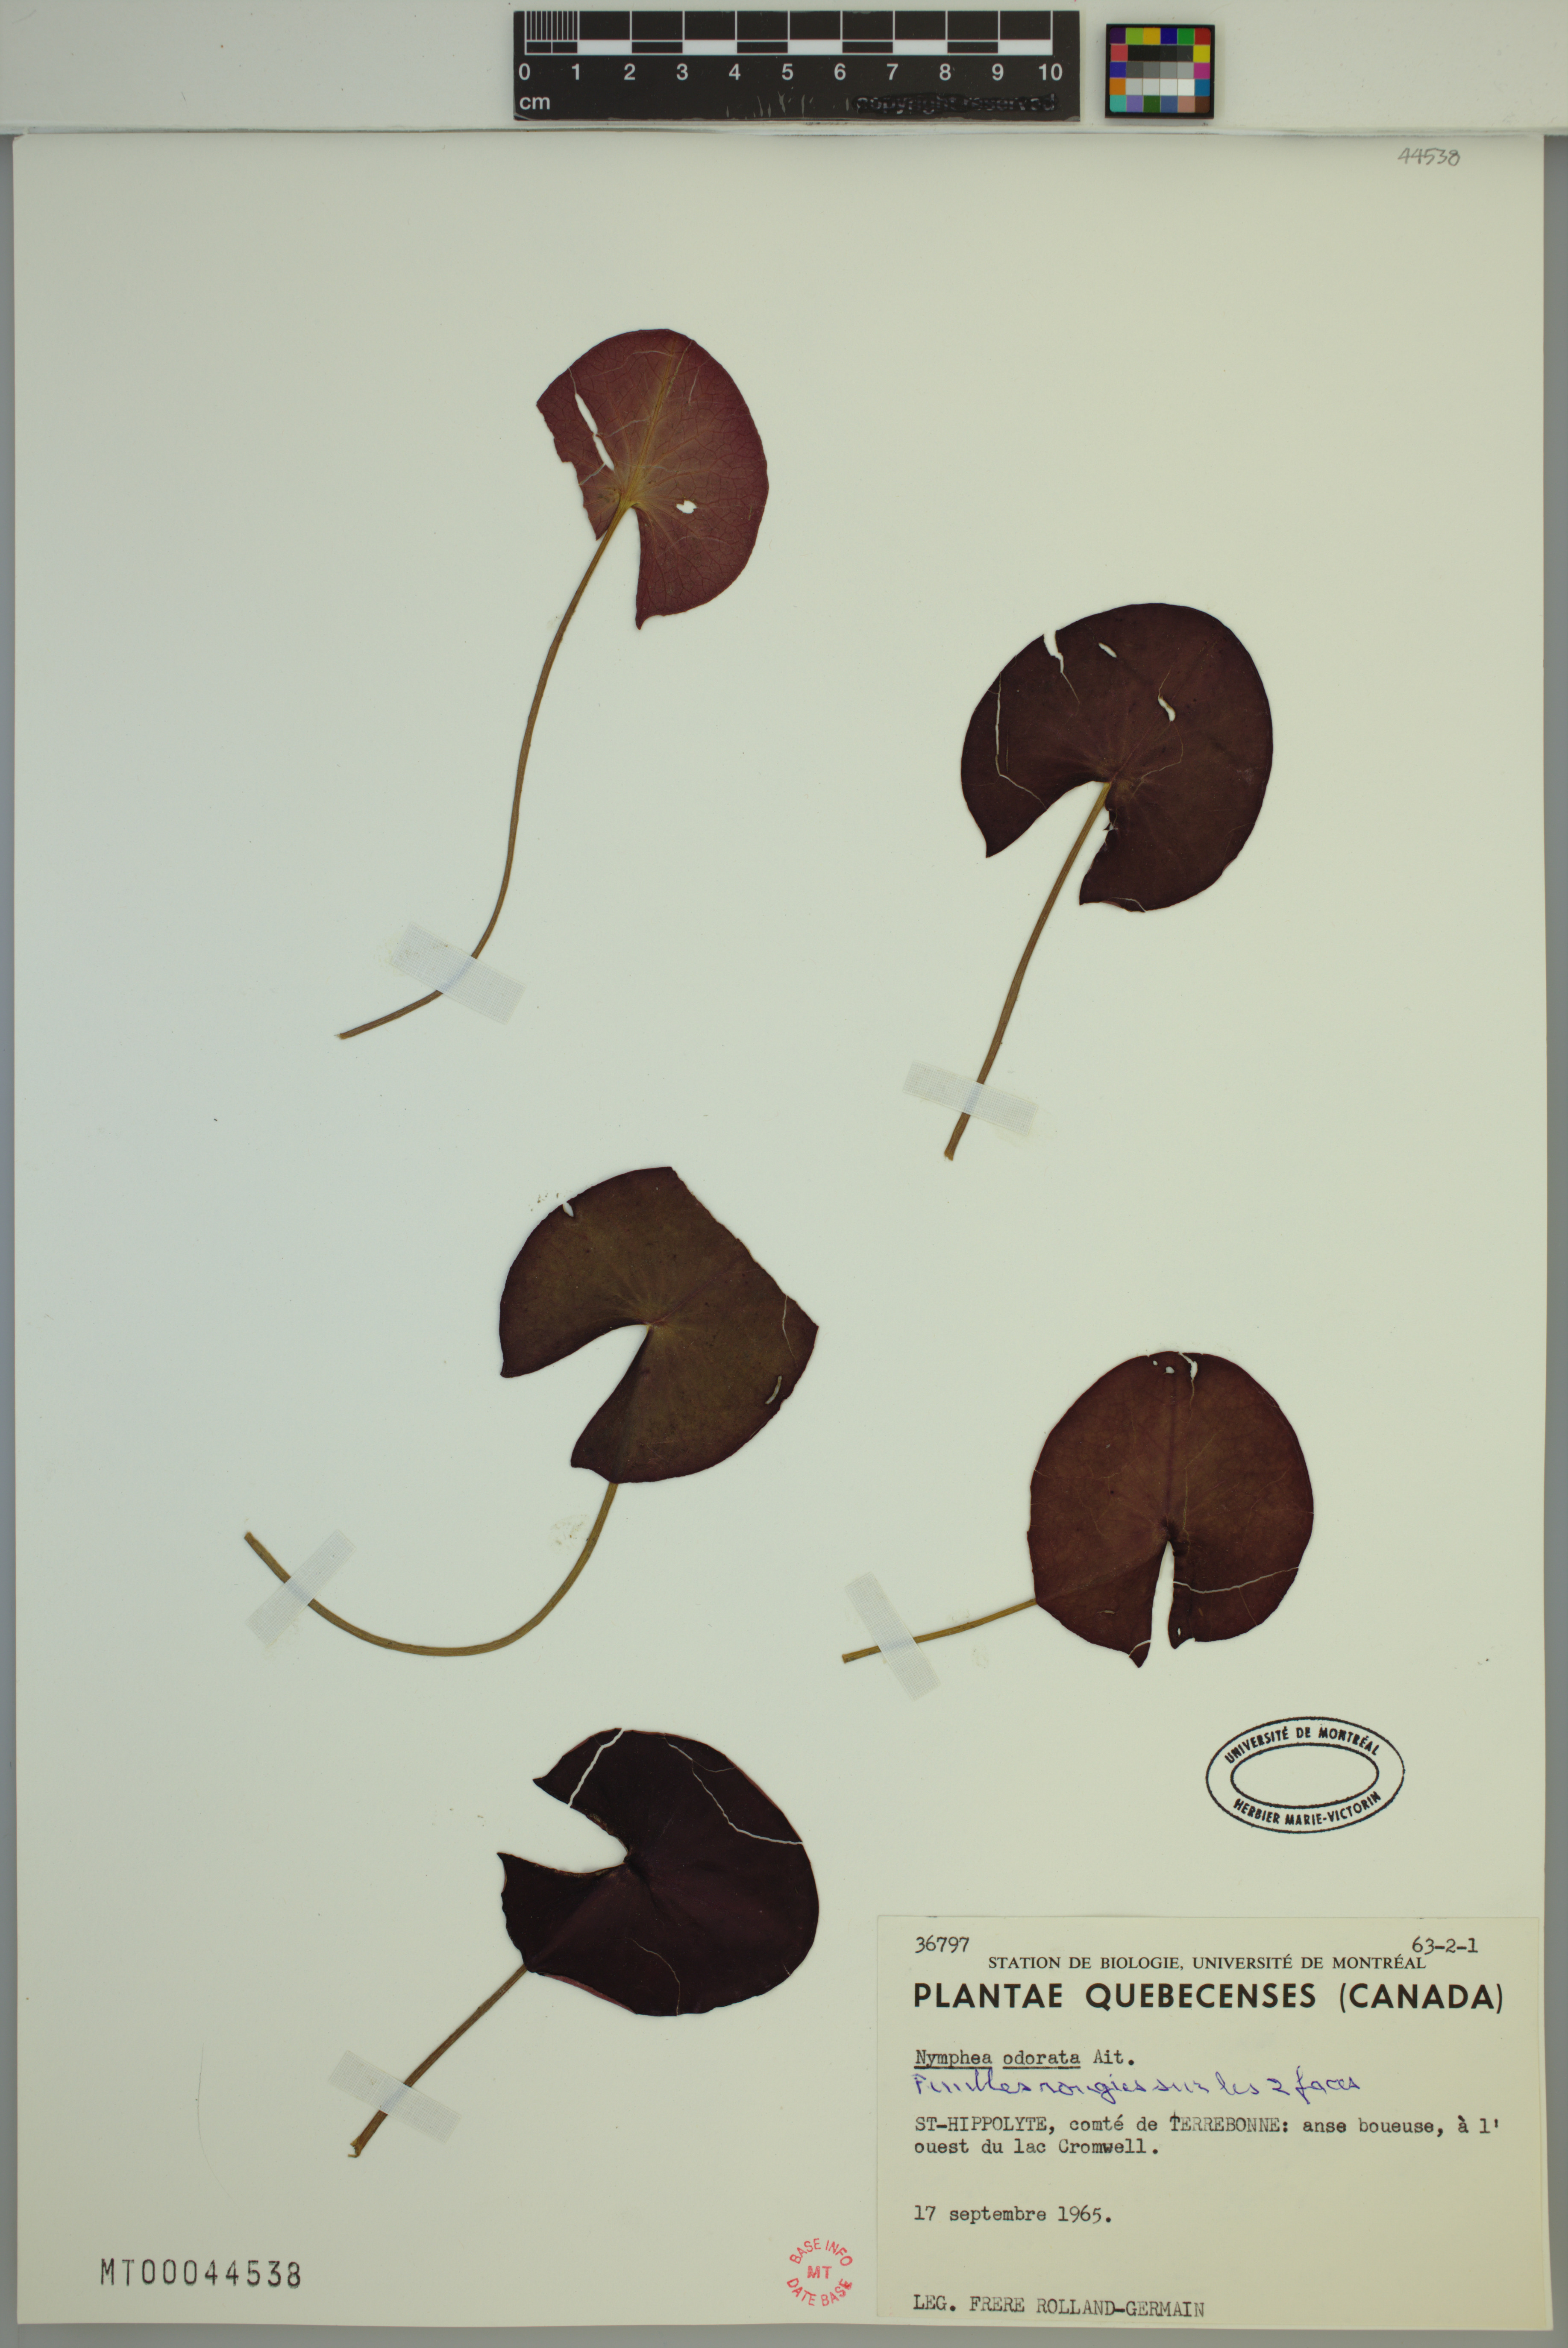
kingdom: Plantae
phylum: Tracheophyta
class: Magnoliopsida
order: Nymphaeales
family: Nymphaeaceae
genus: Nymphaea
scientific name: Nymphaea odorata
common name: Fragrant water-lily
